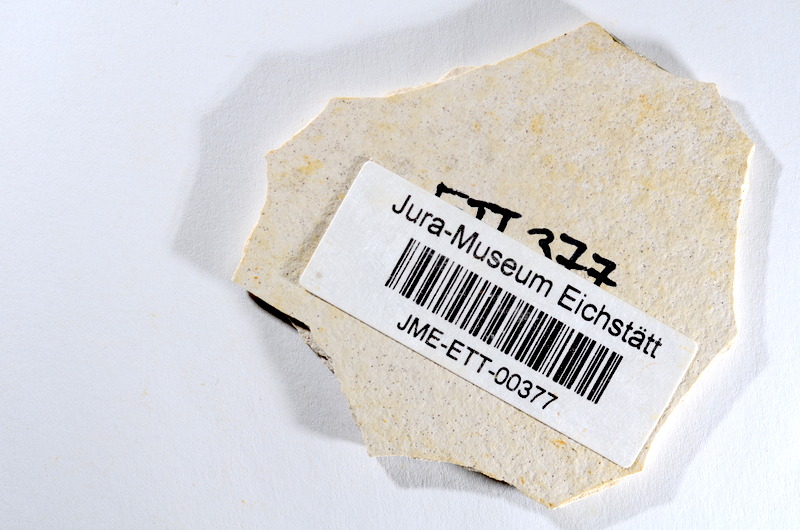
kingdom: Animalia
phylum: Chordata
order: Salmoniformes
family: Orthogonikleithridae
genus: Orthogonikleithrus
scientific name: Orthogonikleithrus hoelli
